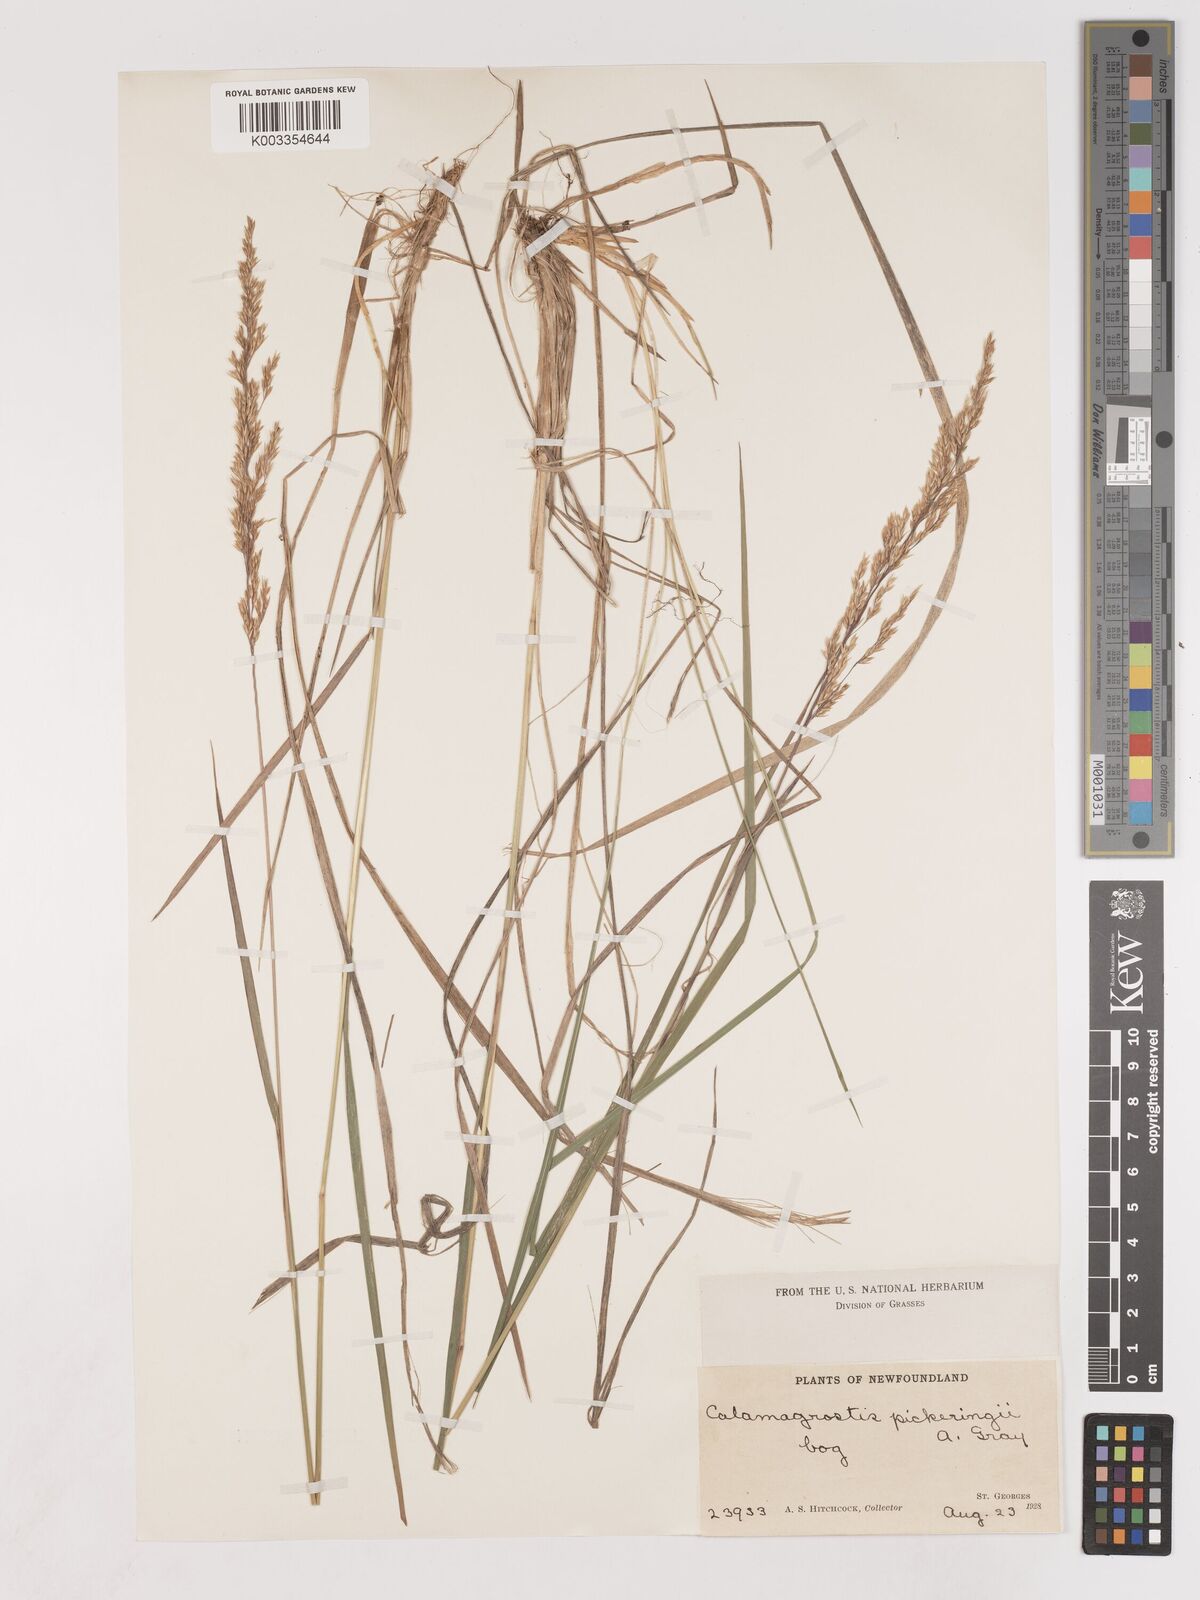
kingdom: Plantae
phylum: Tracheophyta
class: Liliopsida
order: Poales
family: Poaceae
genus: Calamagrostis
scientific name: Calamagrostis pickeringii
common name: Pickering's reed bentgrass
